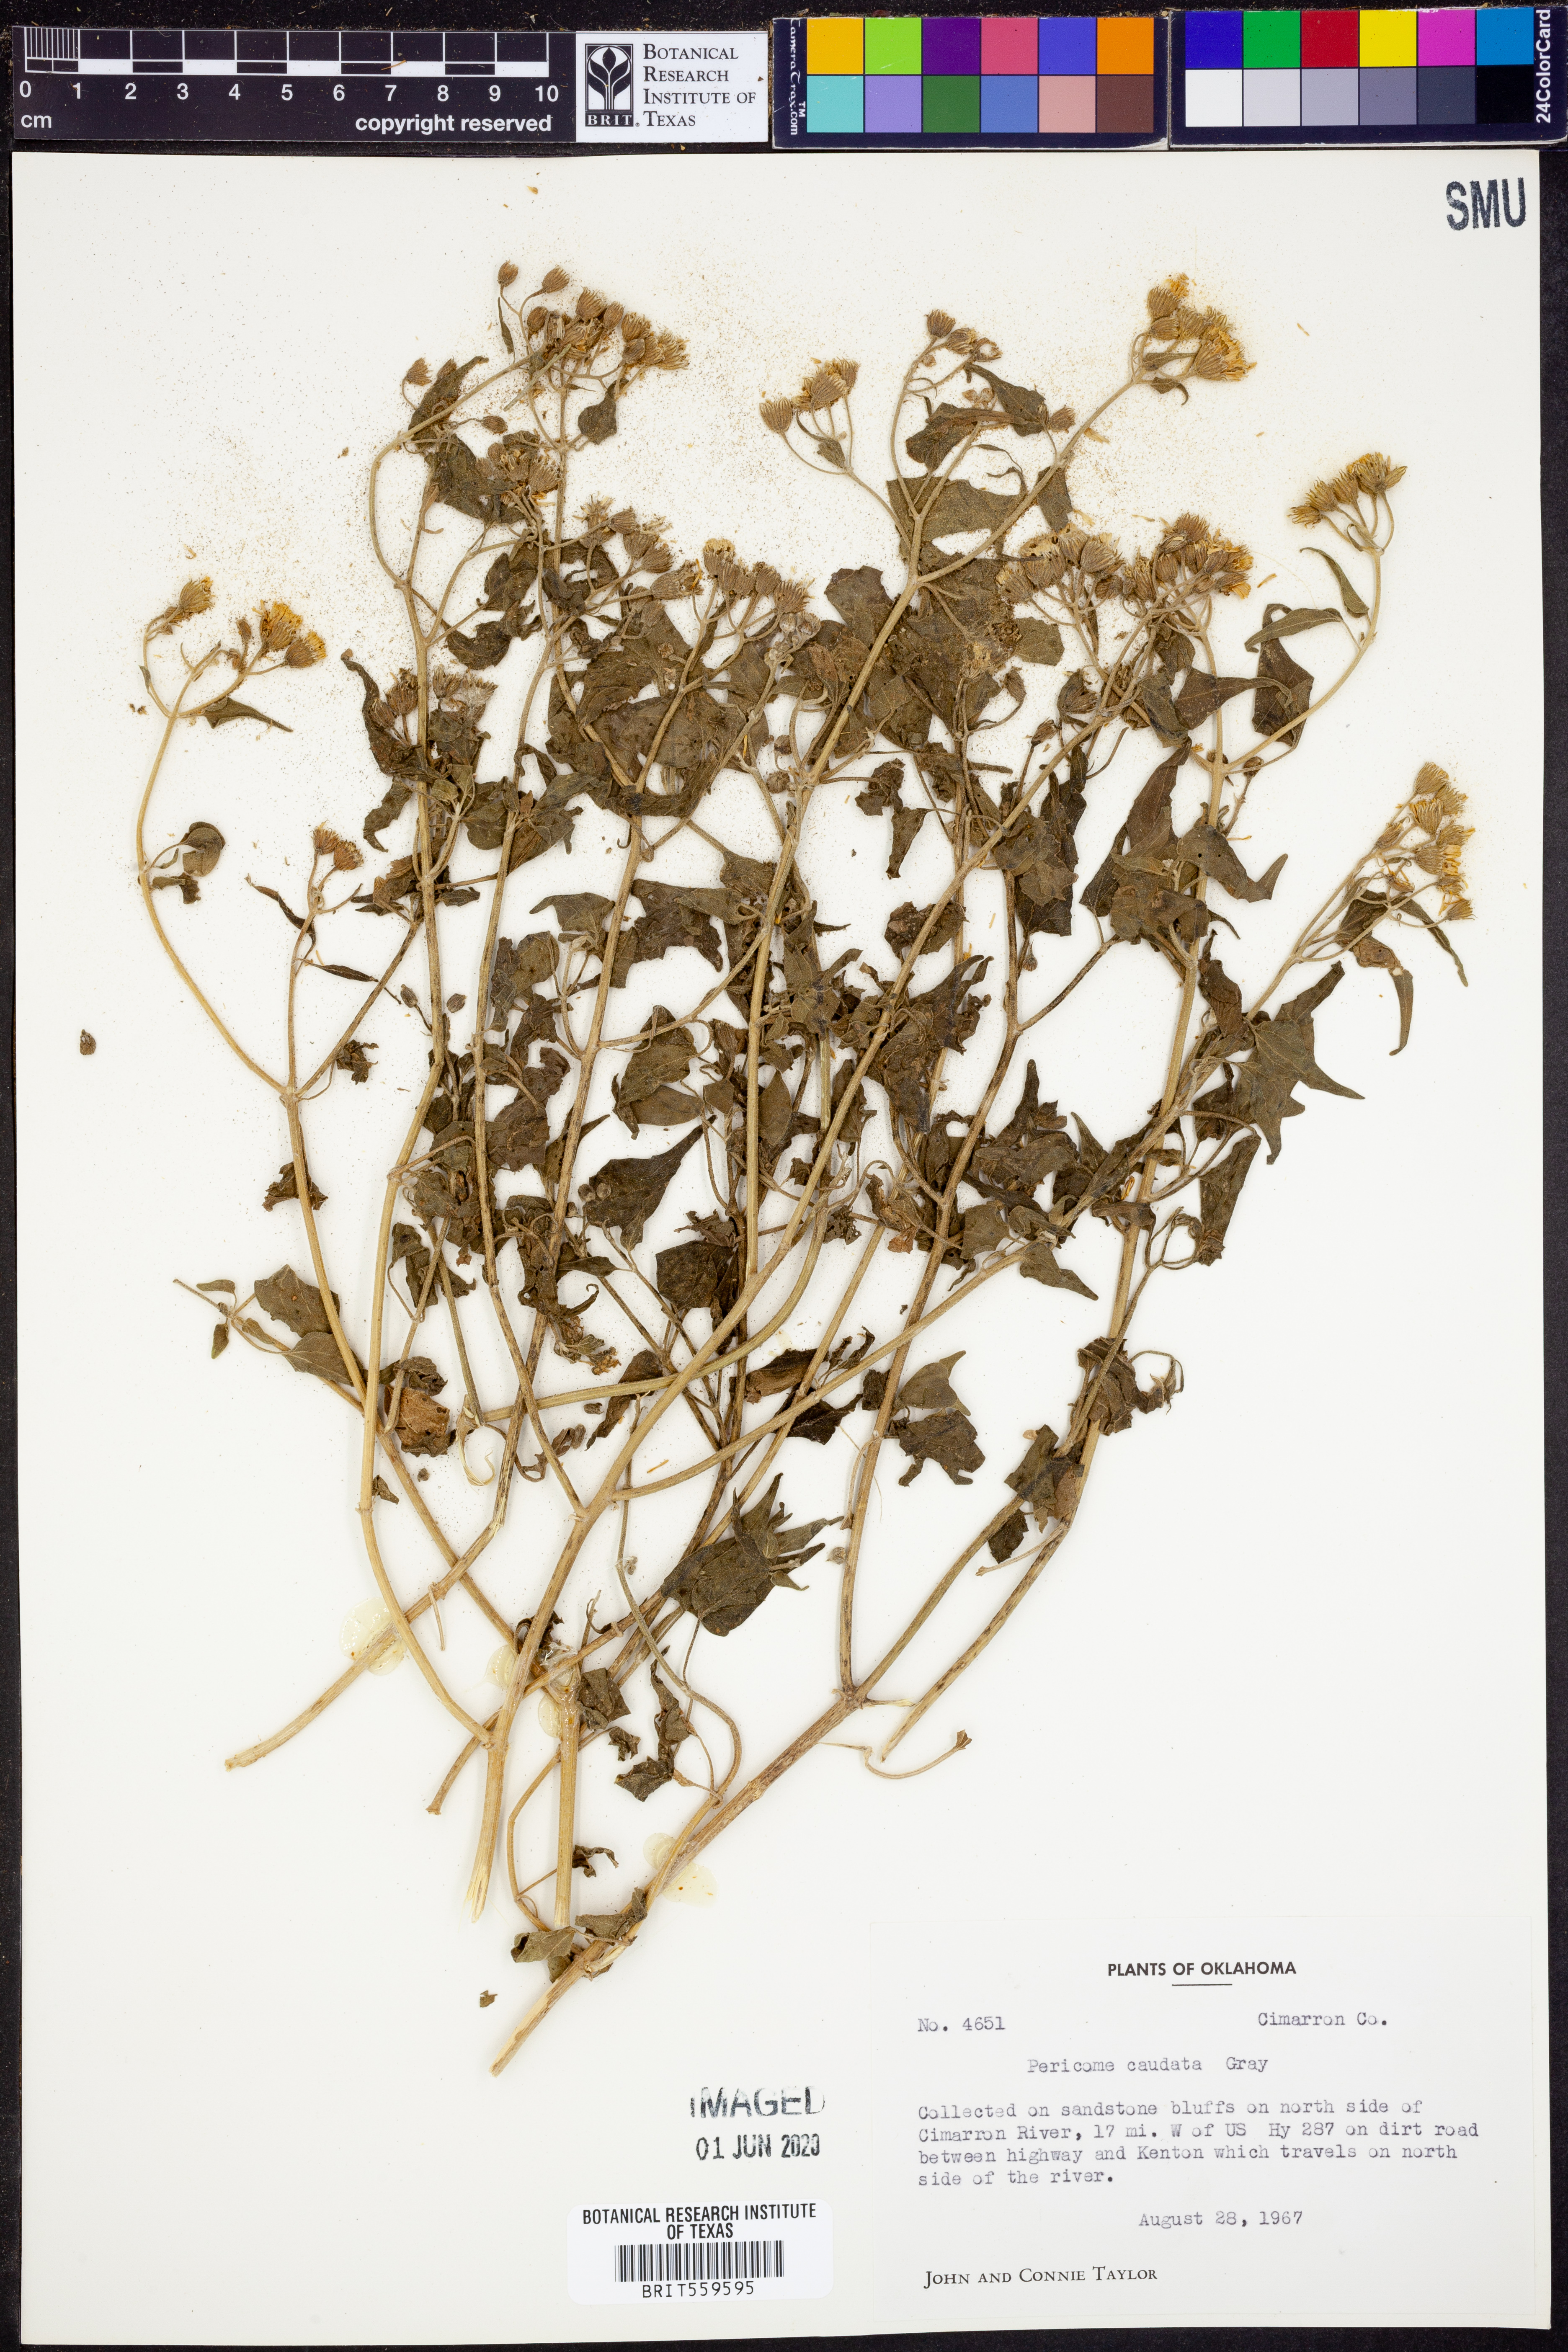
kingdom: Plantae
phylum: Tracheophyta
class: Magnoliopsida
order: Asterales
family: Asteraceae
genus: Pericome
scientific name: Pericome caudata
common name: Taperleaf
